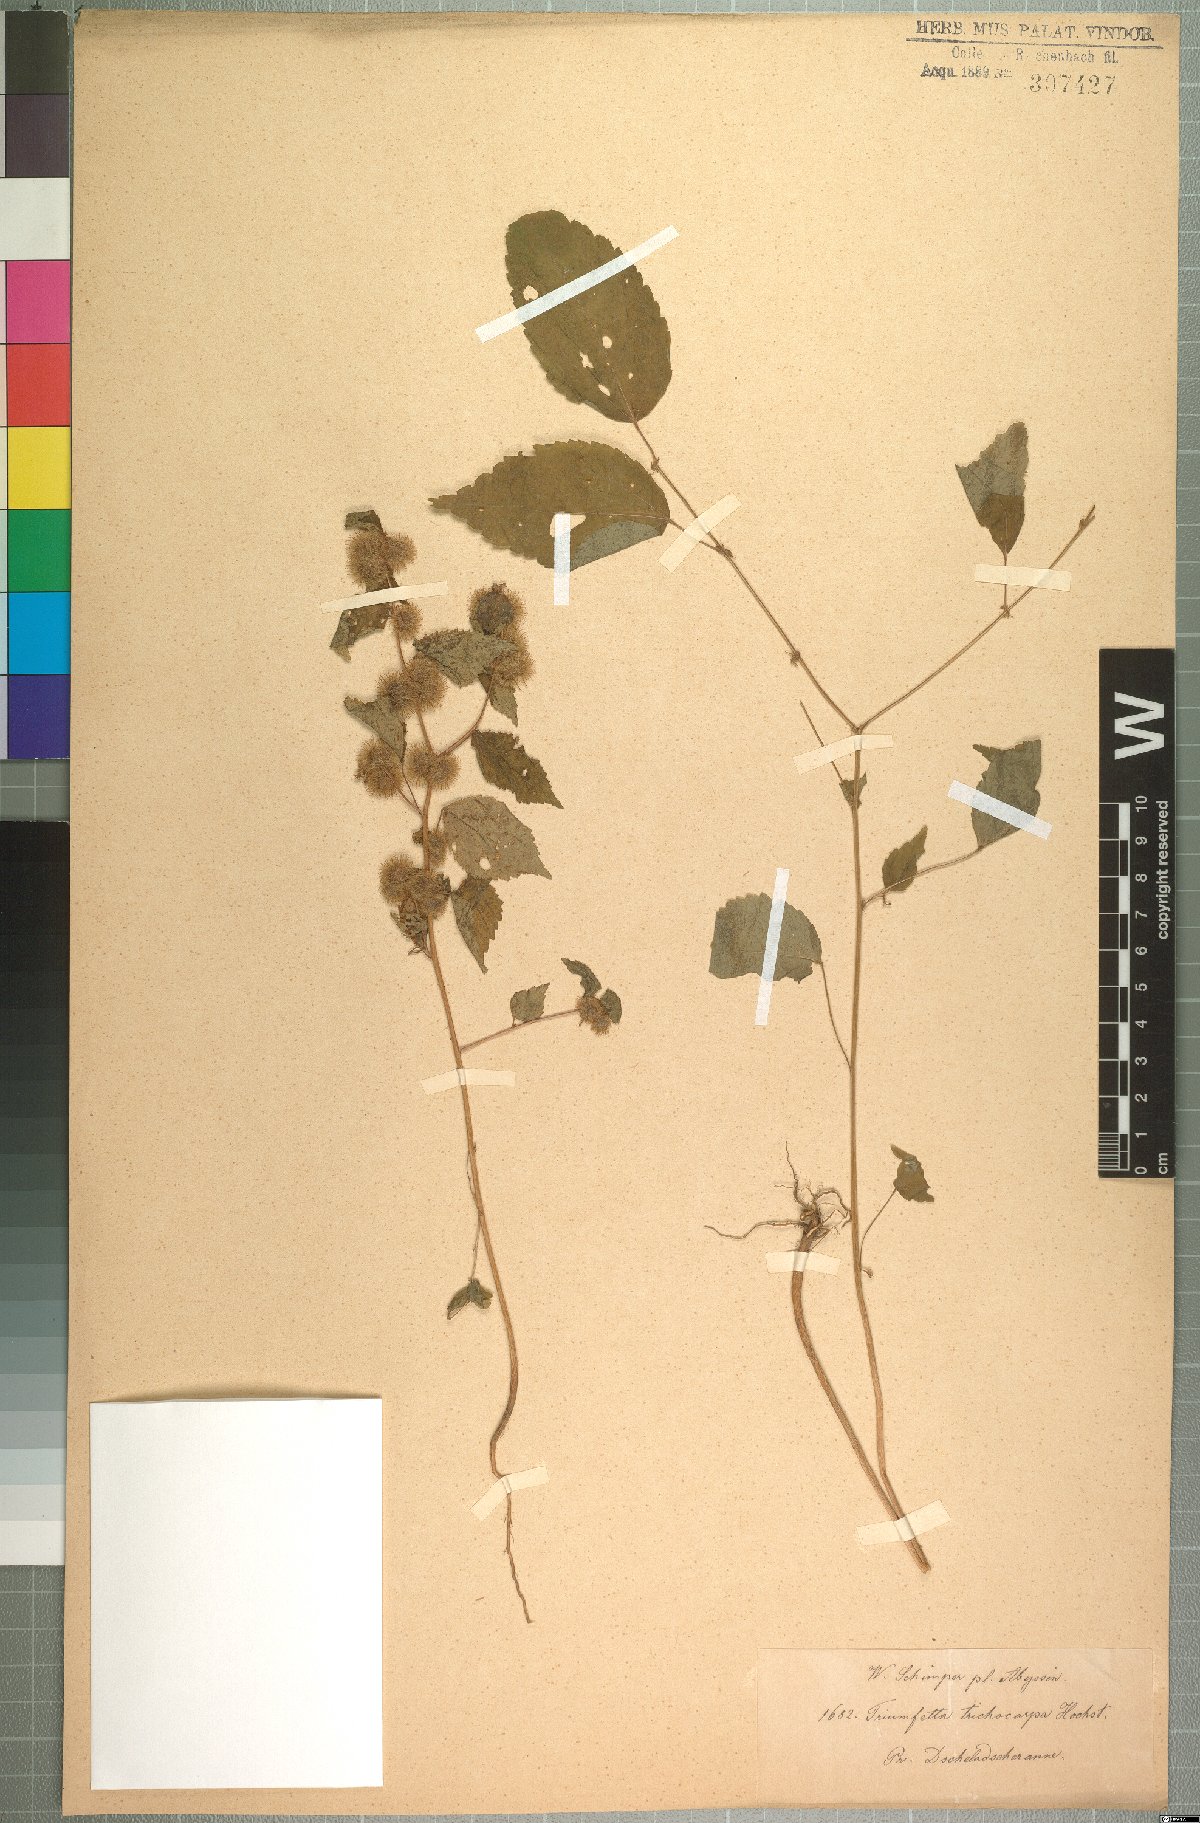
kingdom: Plantae
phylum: Tracheophyta
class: Magnoliopsida
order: Malvales
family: Malvaceae
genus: Triumfetta
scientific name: Triumfetta trichocarpa
